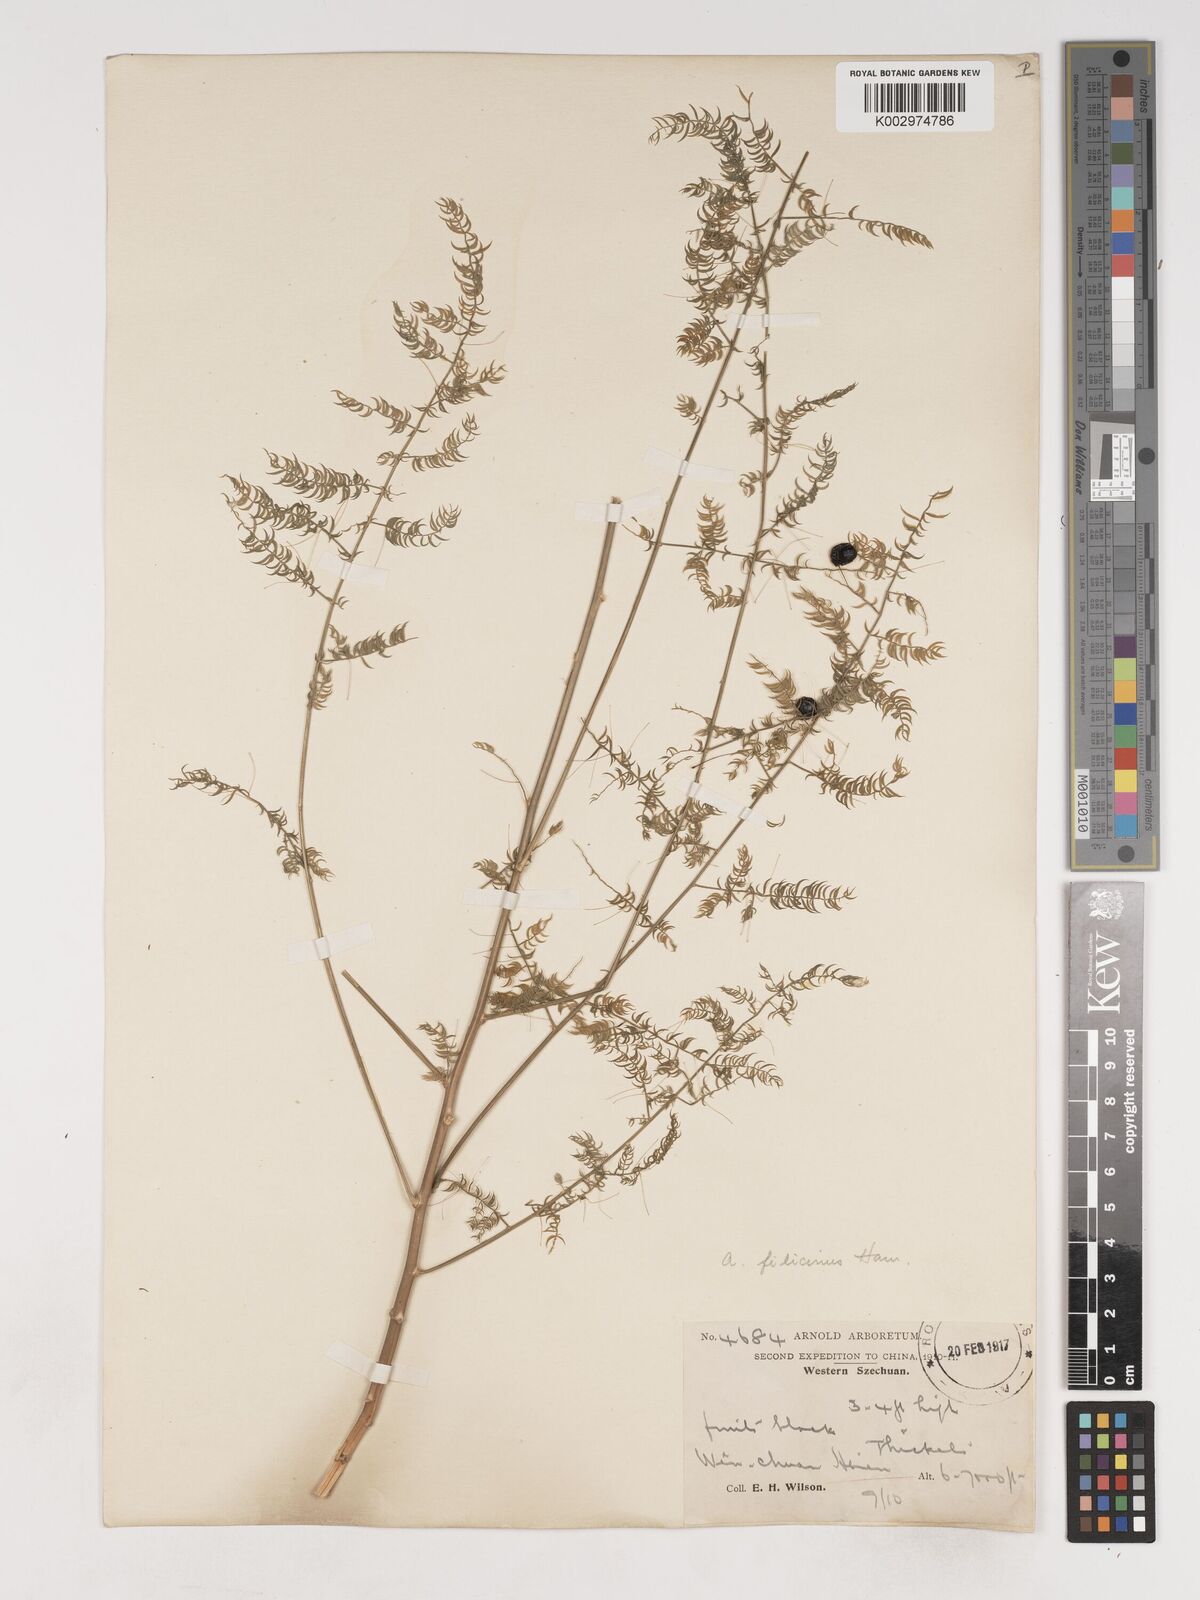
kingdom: Plantae
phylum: Tracheophyta
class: Liliopsida
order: Asparagales
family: Asparagaceae
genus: Asparagus
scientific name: Asparagus filicinus
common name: Fern asparagus
